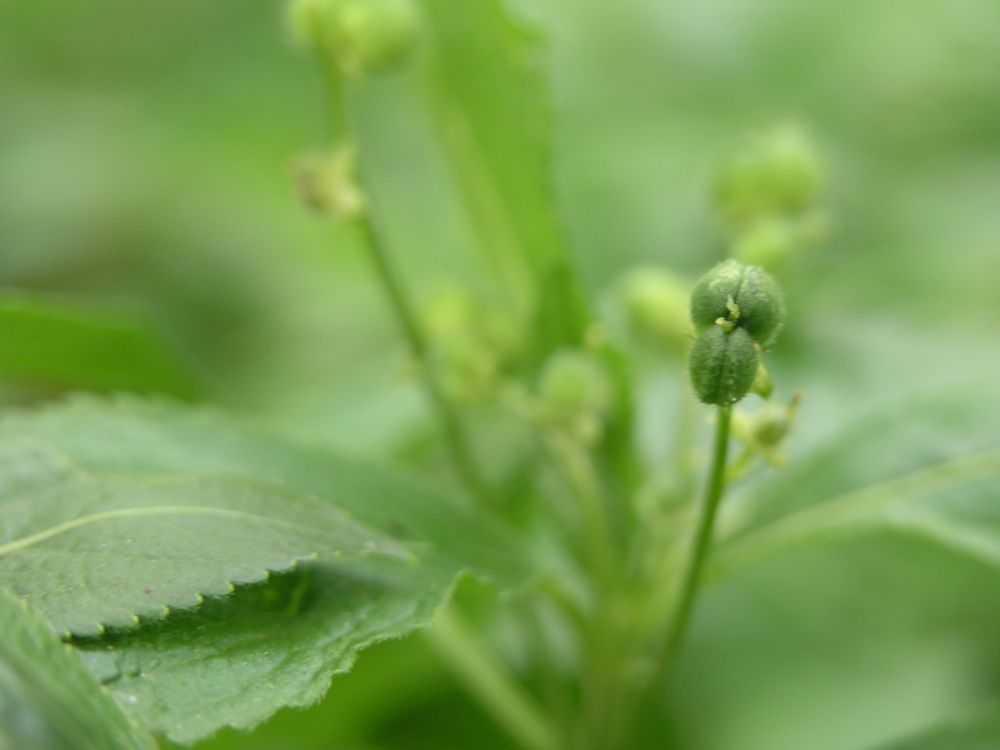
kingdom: Plantae
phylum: Tracheophyta
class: Magnoliopsida
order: Malpighiales
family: Euphorbiaceae
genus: Mercurialis
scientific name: Mercurialis perennis
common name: Dog mercury
